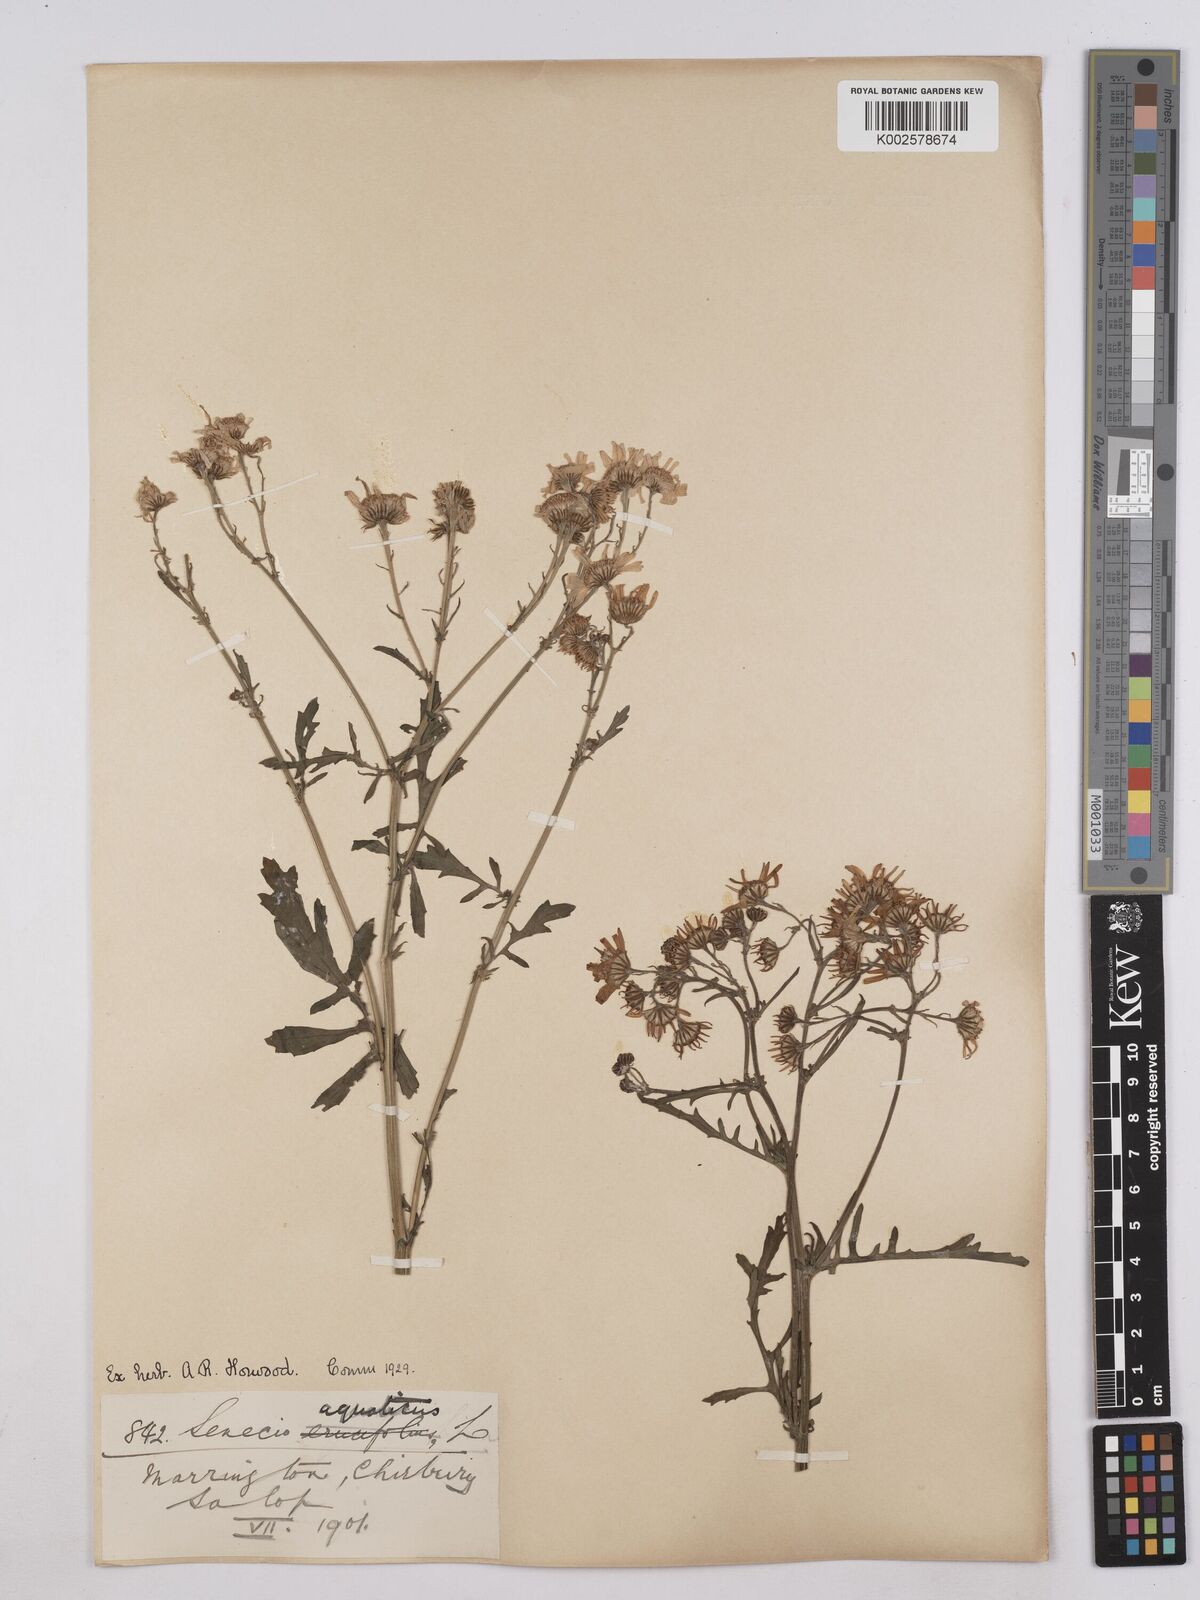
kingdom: Plantae
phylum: Tracheophyta
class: Magnoliopsida
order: Asterales
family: Asteraceae
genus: Jacobaea
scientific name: Jacobaea aquatica
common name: Water ragwort
